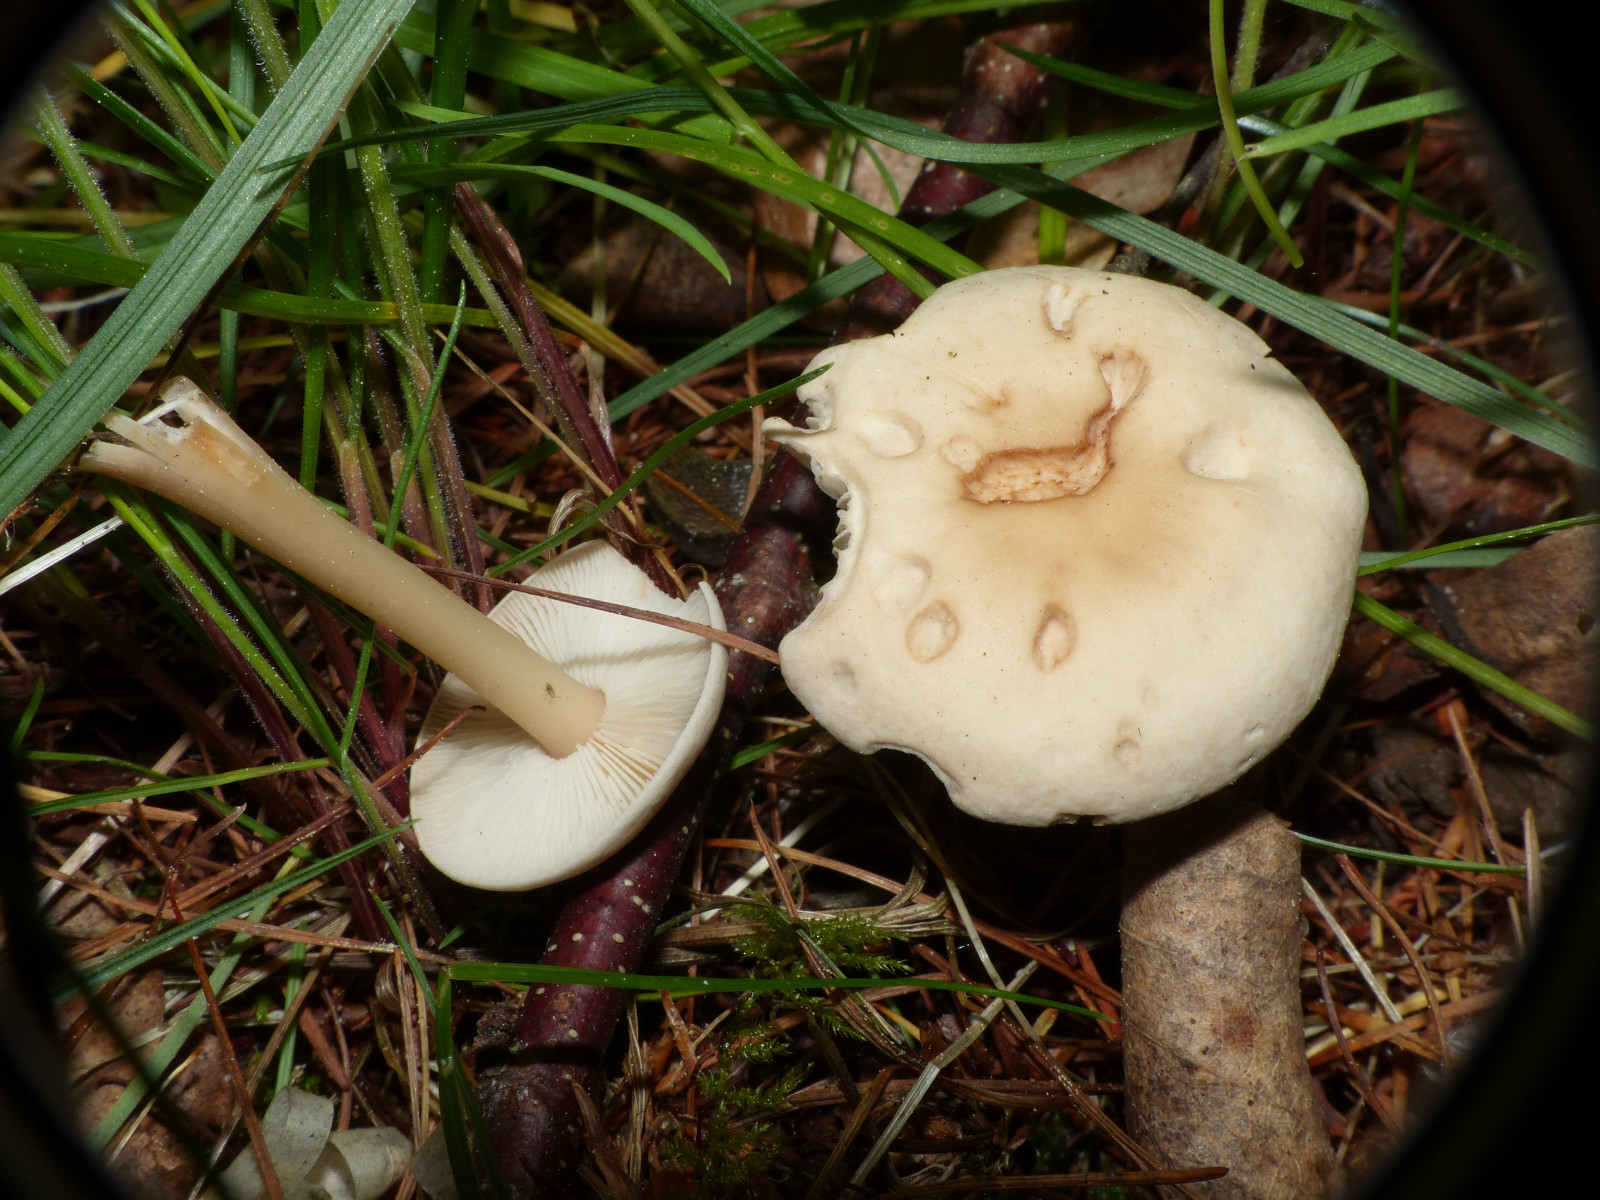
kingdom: Fungi
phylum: Basidiomycota
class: Agaricomycetes
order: Agaricales
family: Omphalotaceae
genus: Gymnopus
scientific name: Gymnopus aquosus
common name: bleg fladhat
